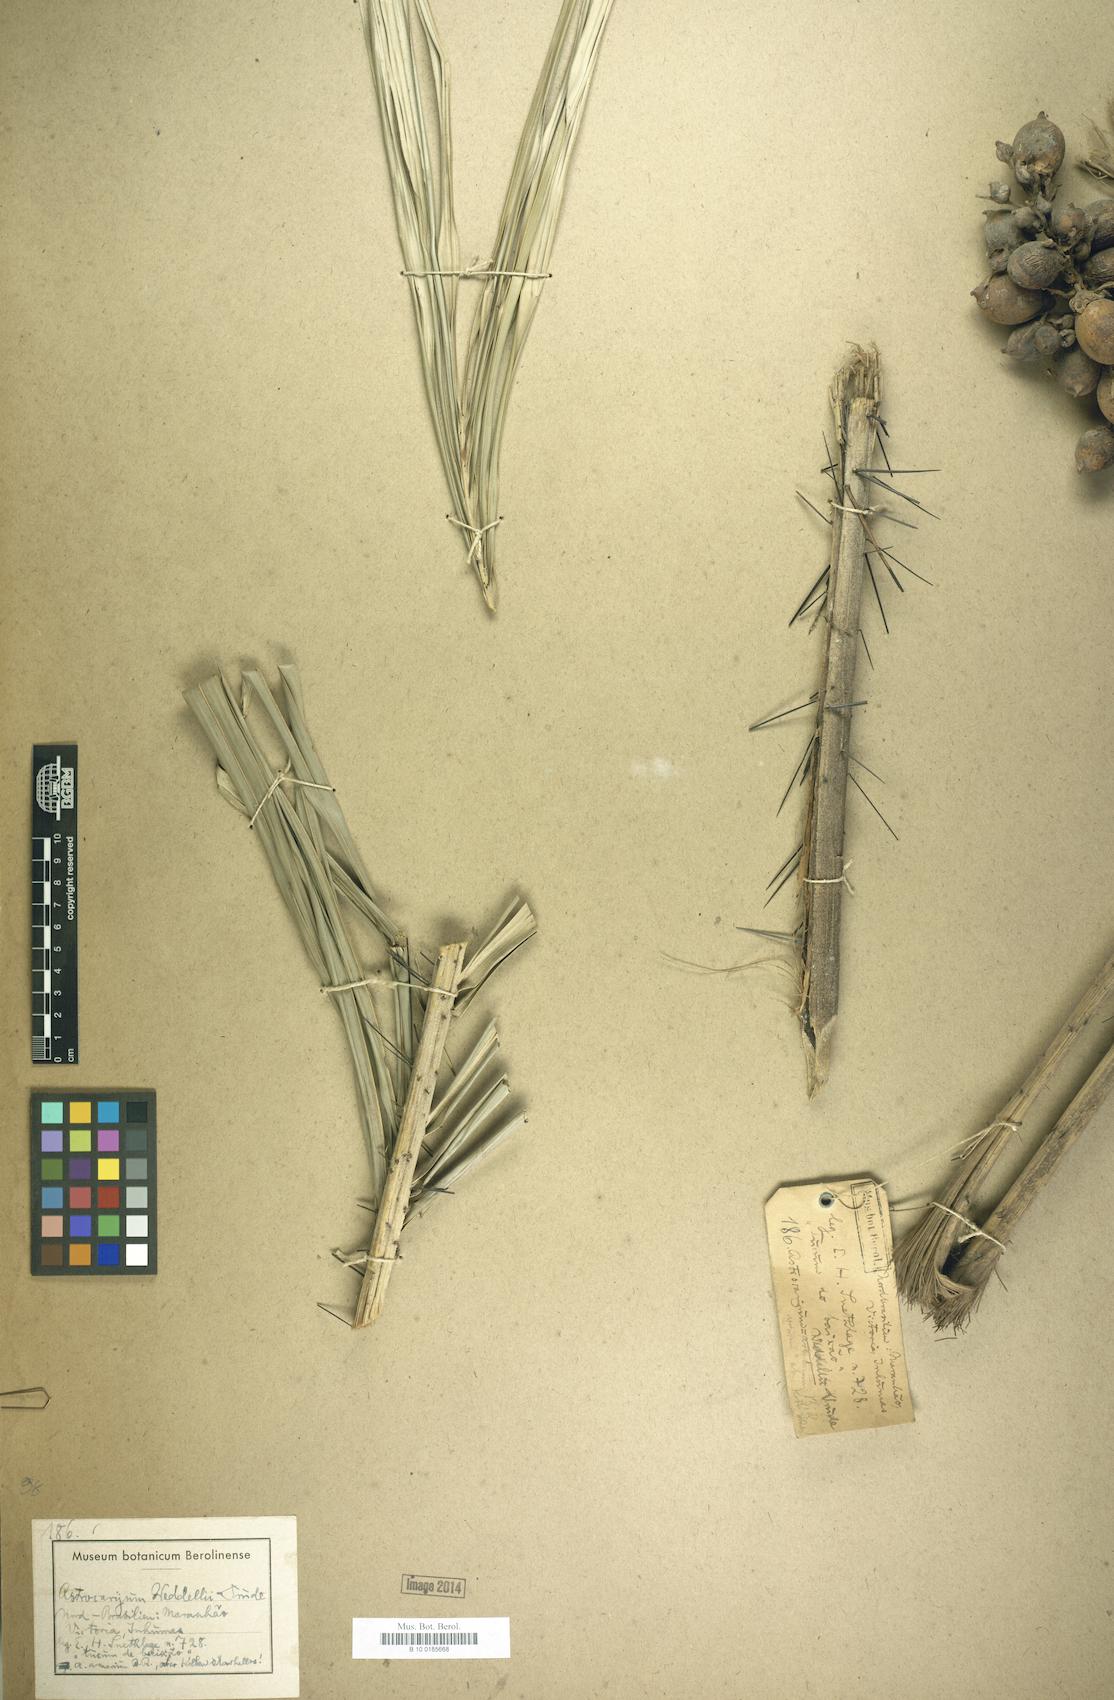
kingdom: Plantae
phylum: Tracheophyta
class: Liliopsida
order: Arecales
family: Arecaceae
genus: Astrocaryum
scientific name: Astrocaryum weddellii
